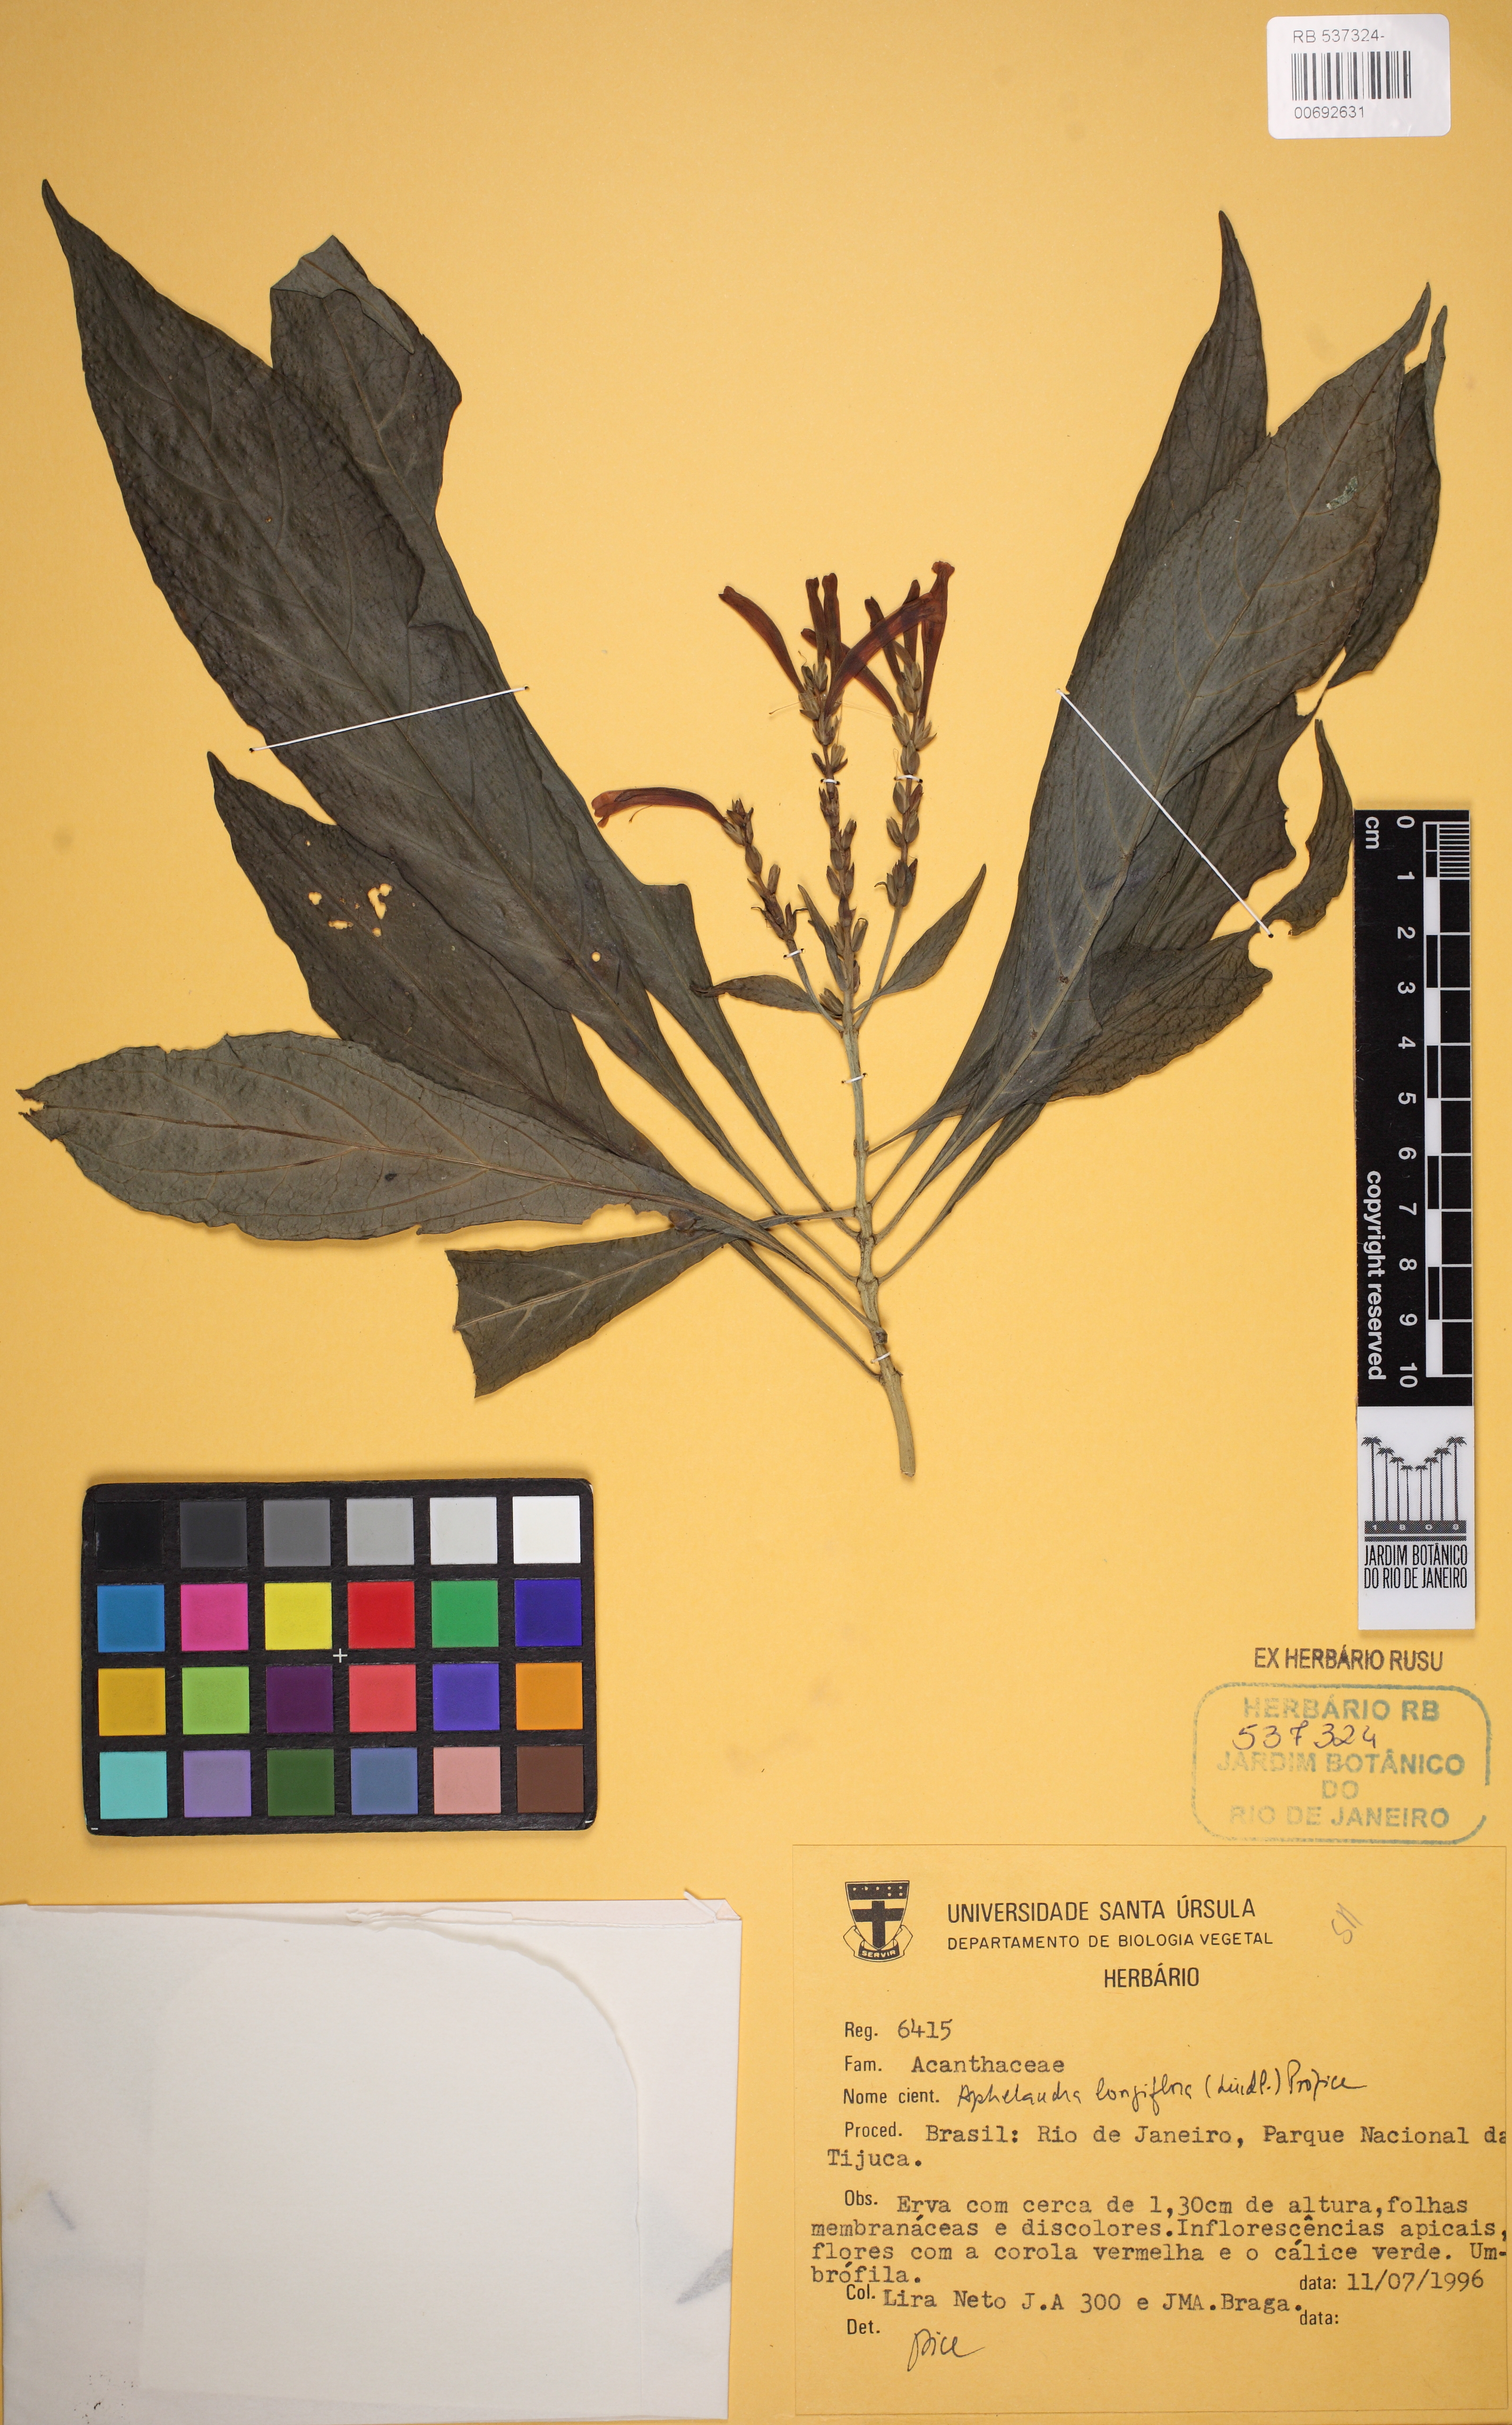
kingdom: Plantae
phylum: Tracheophyta
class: Magnoliopsida
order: Lamiales
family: Acanthaceae
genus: Aphelandra
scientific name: Aphelandra longiflora
